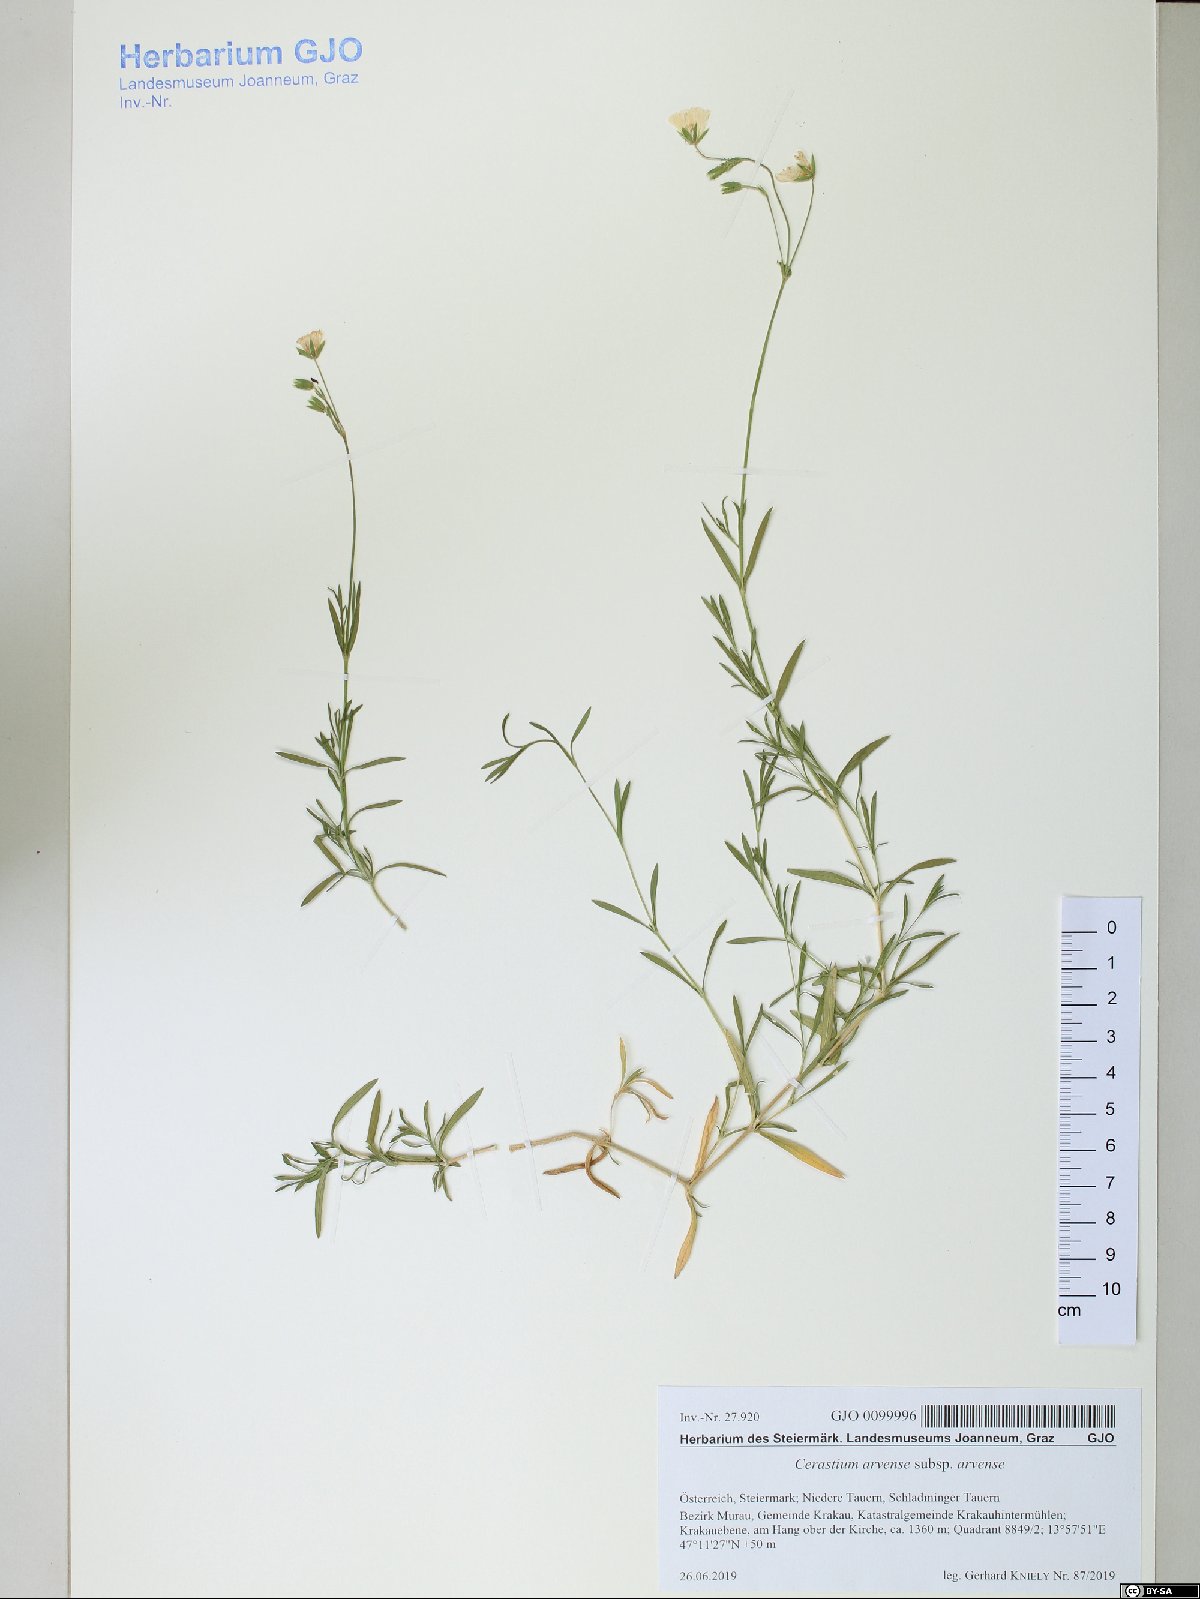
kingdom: Plantae
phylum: Tracheophyta
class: Magnoliopsida
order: Caryophyllales
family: Caryophyllaceae
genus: Cerastium
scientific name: Cerastium arvense
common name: Field mouse-ear
